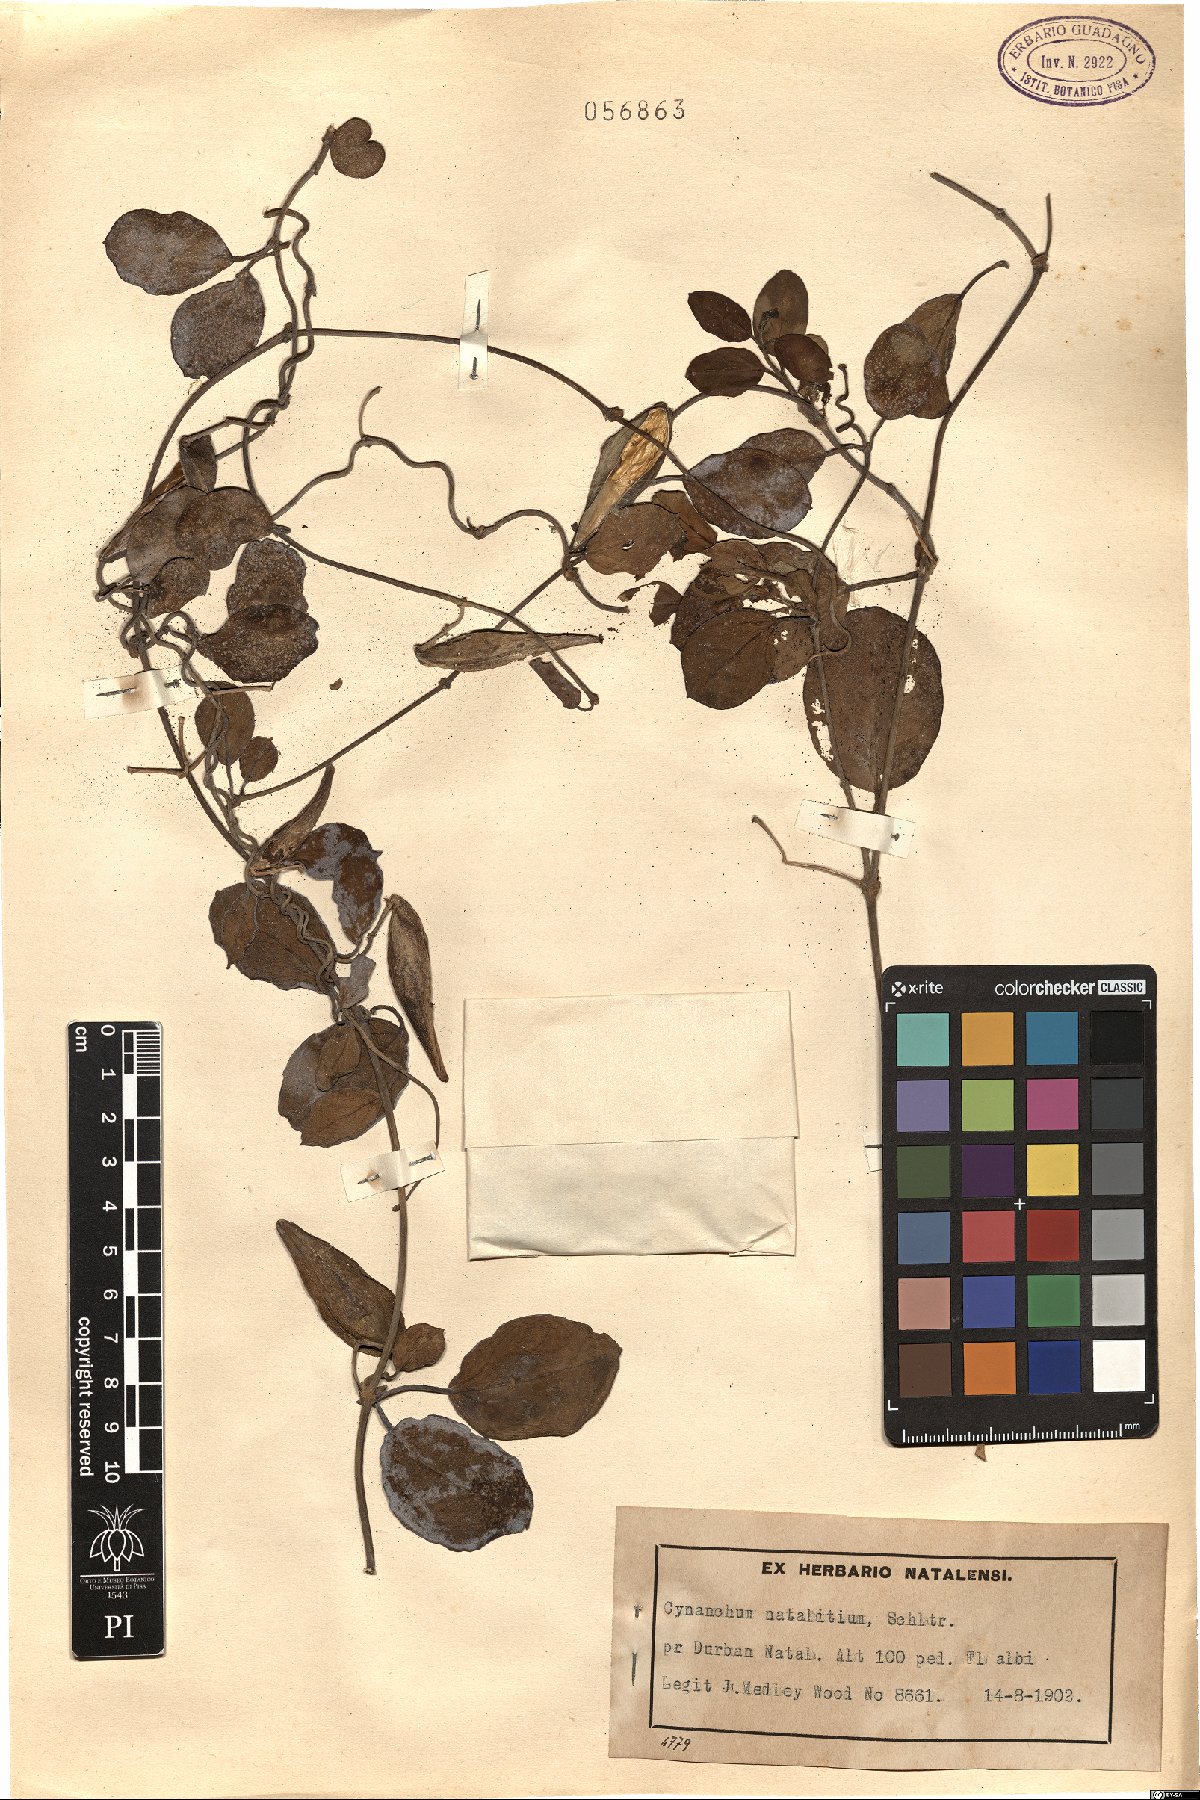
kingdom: Plantae
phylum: Tracheophyta
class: Magnoliopsida
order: Gentianales
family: Apocynaceae
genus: Cynanchum
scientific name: Cynanchum natalitium
